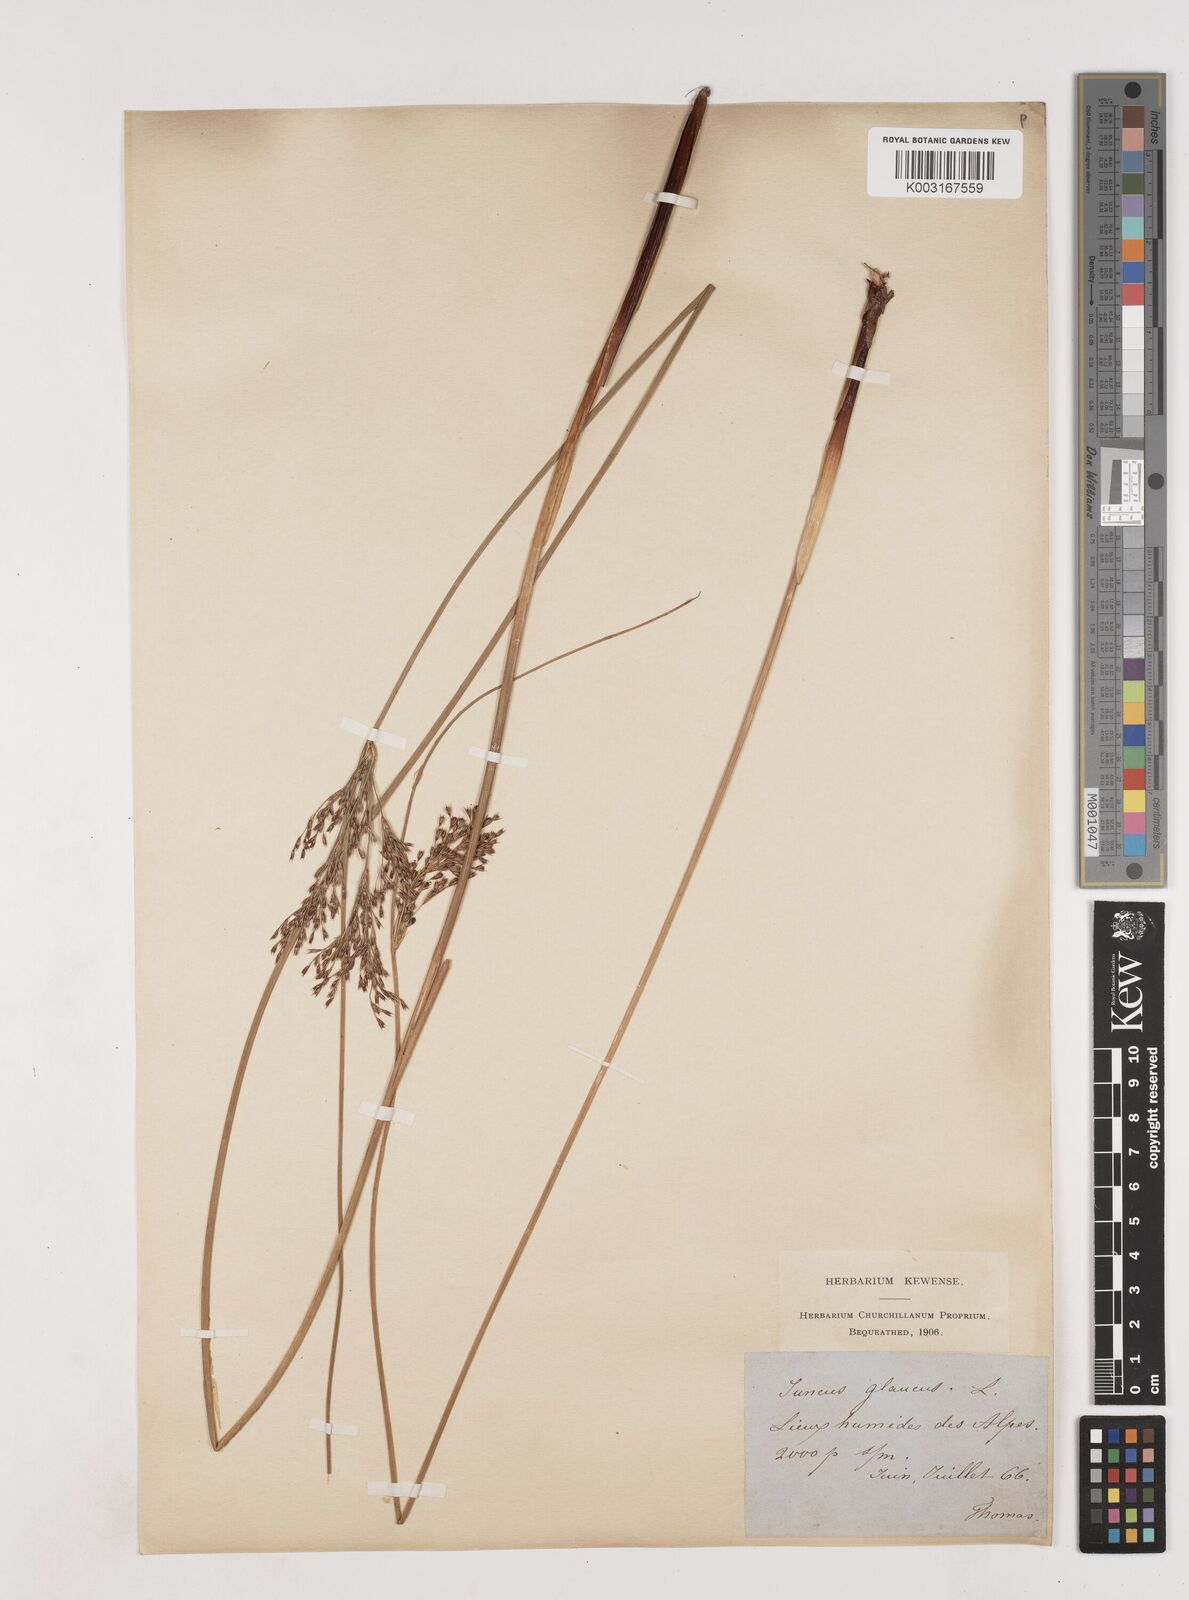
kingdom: Plantae
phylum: Tracheophyta
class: Liliopsida
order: Poales
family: Juncaceae
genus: Juncus
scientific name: Juncus inflexus
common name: Hard rush
